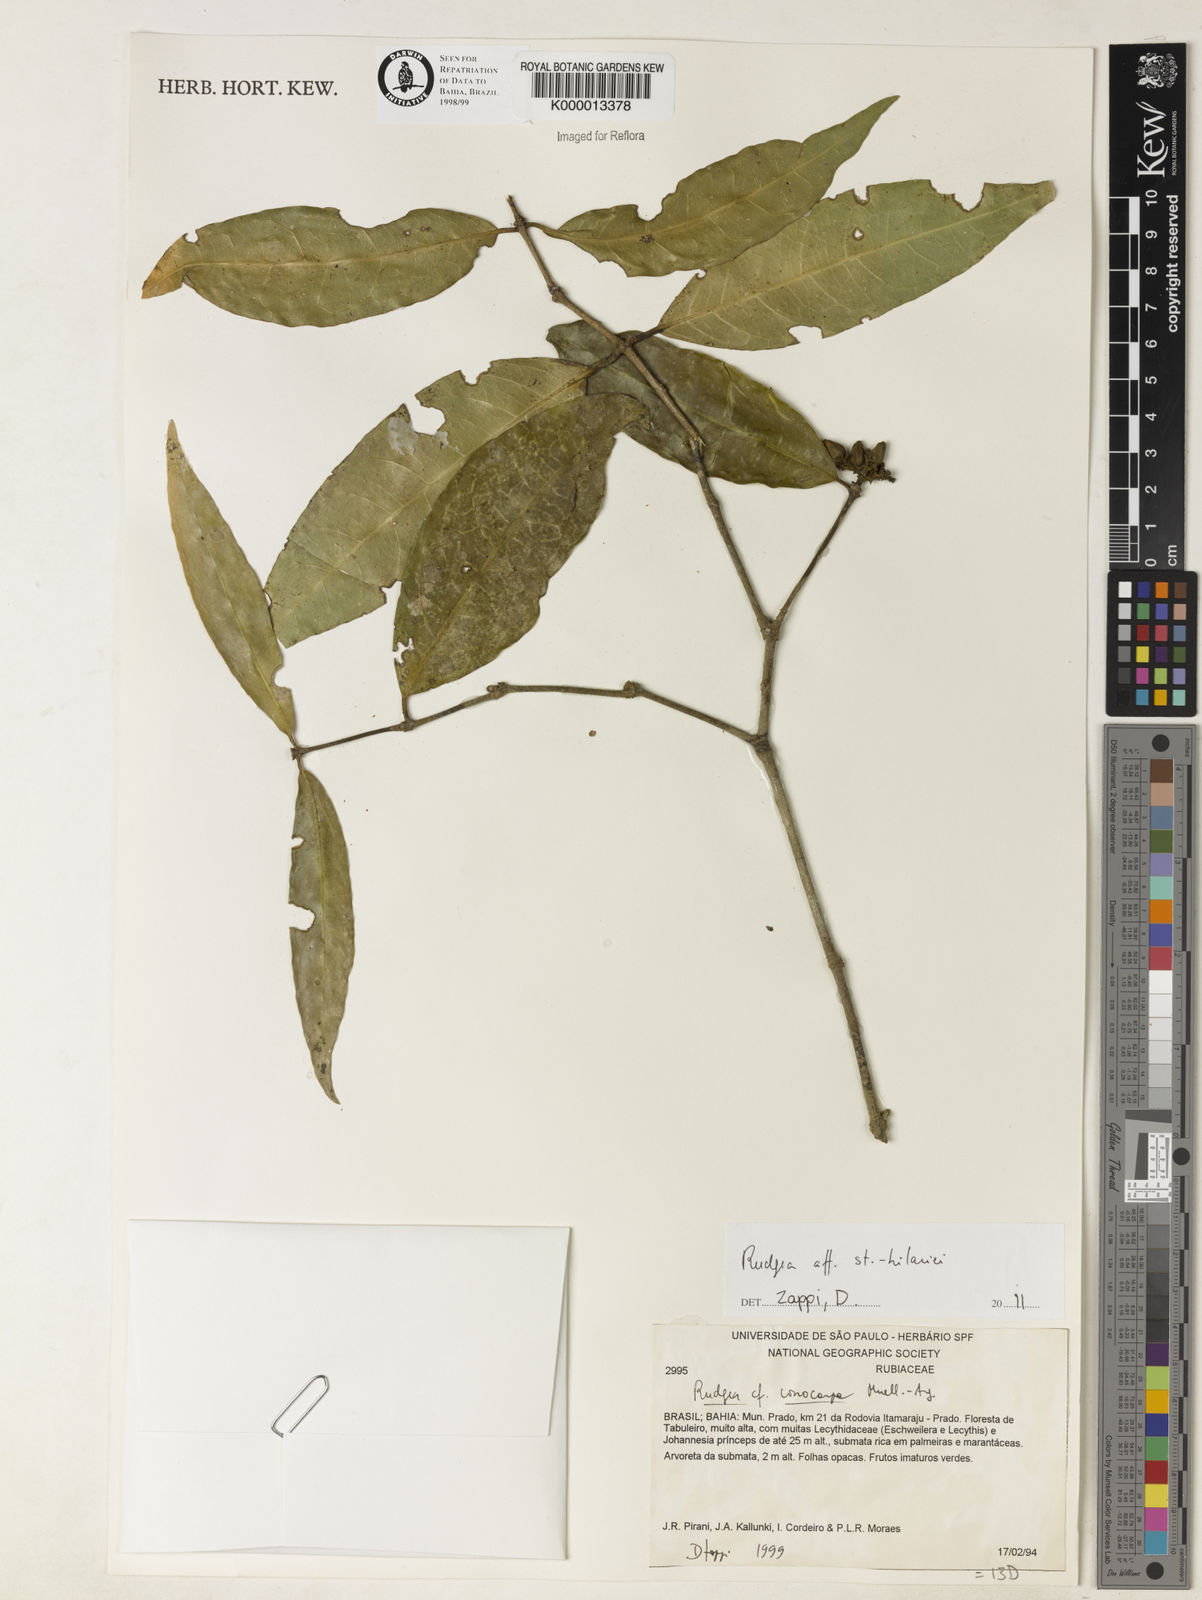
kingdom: Plantae
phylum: Tracheophyta
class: Magnoliopsida
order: Gentianales
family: Rubiaceae
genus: Rudgea
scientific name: Rudgea conocarpa
